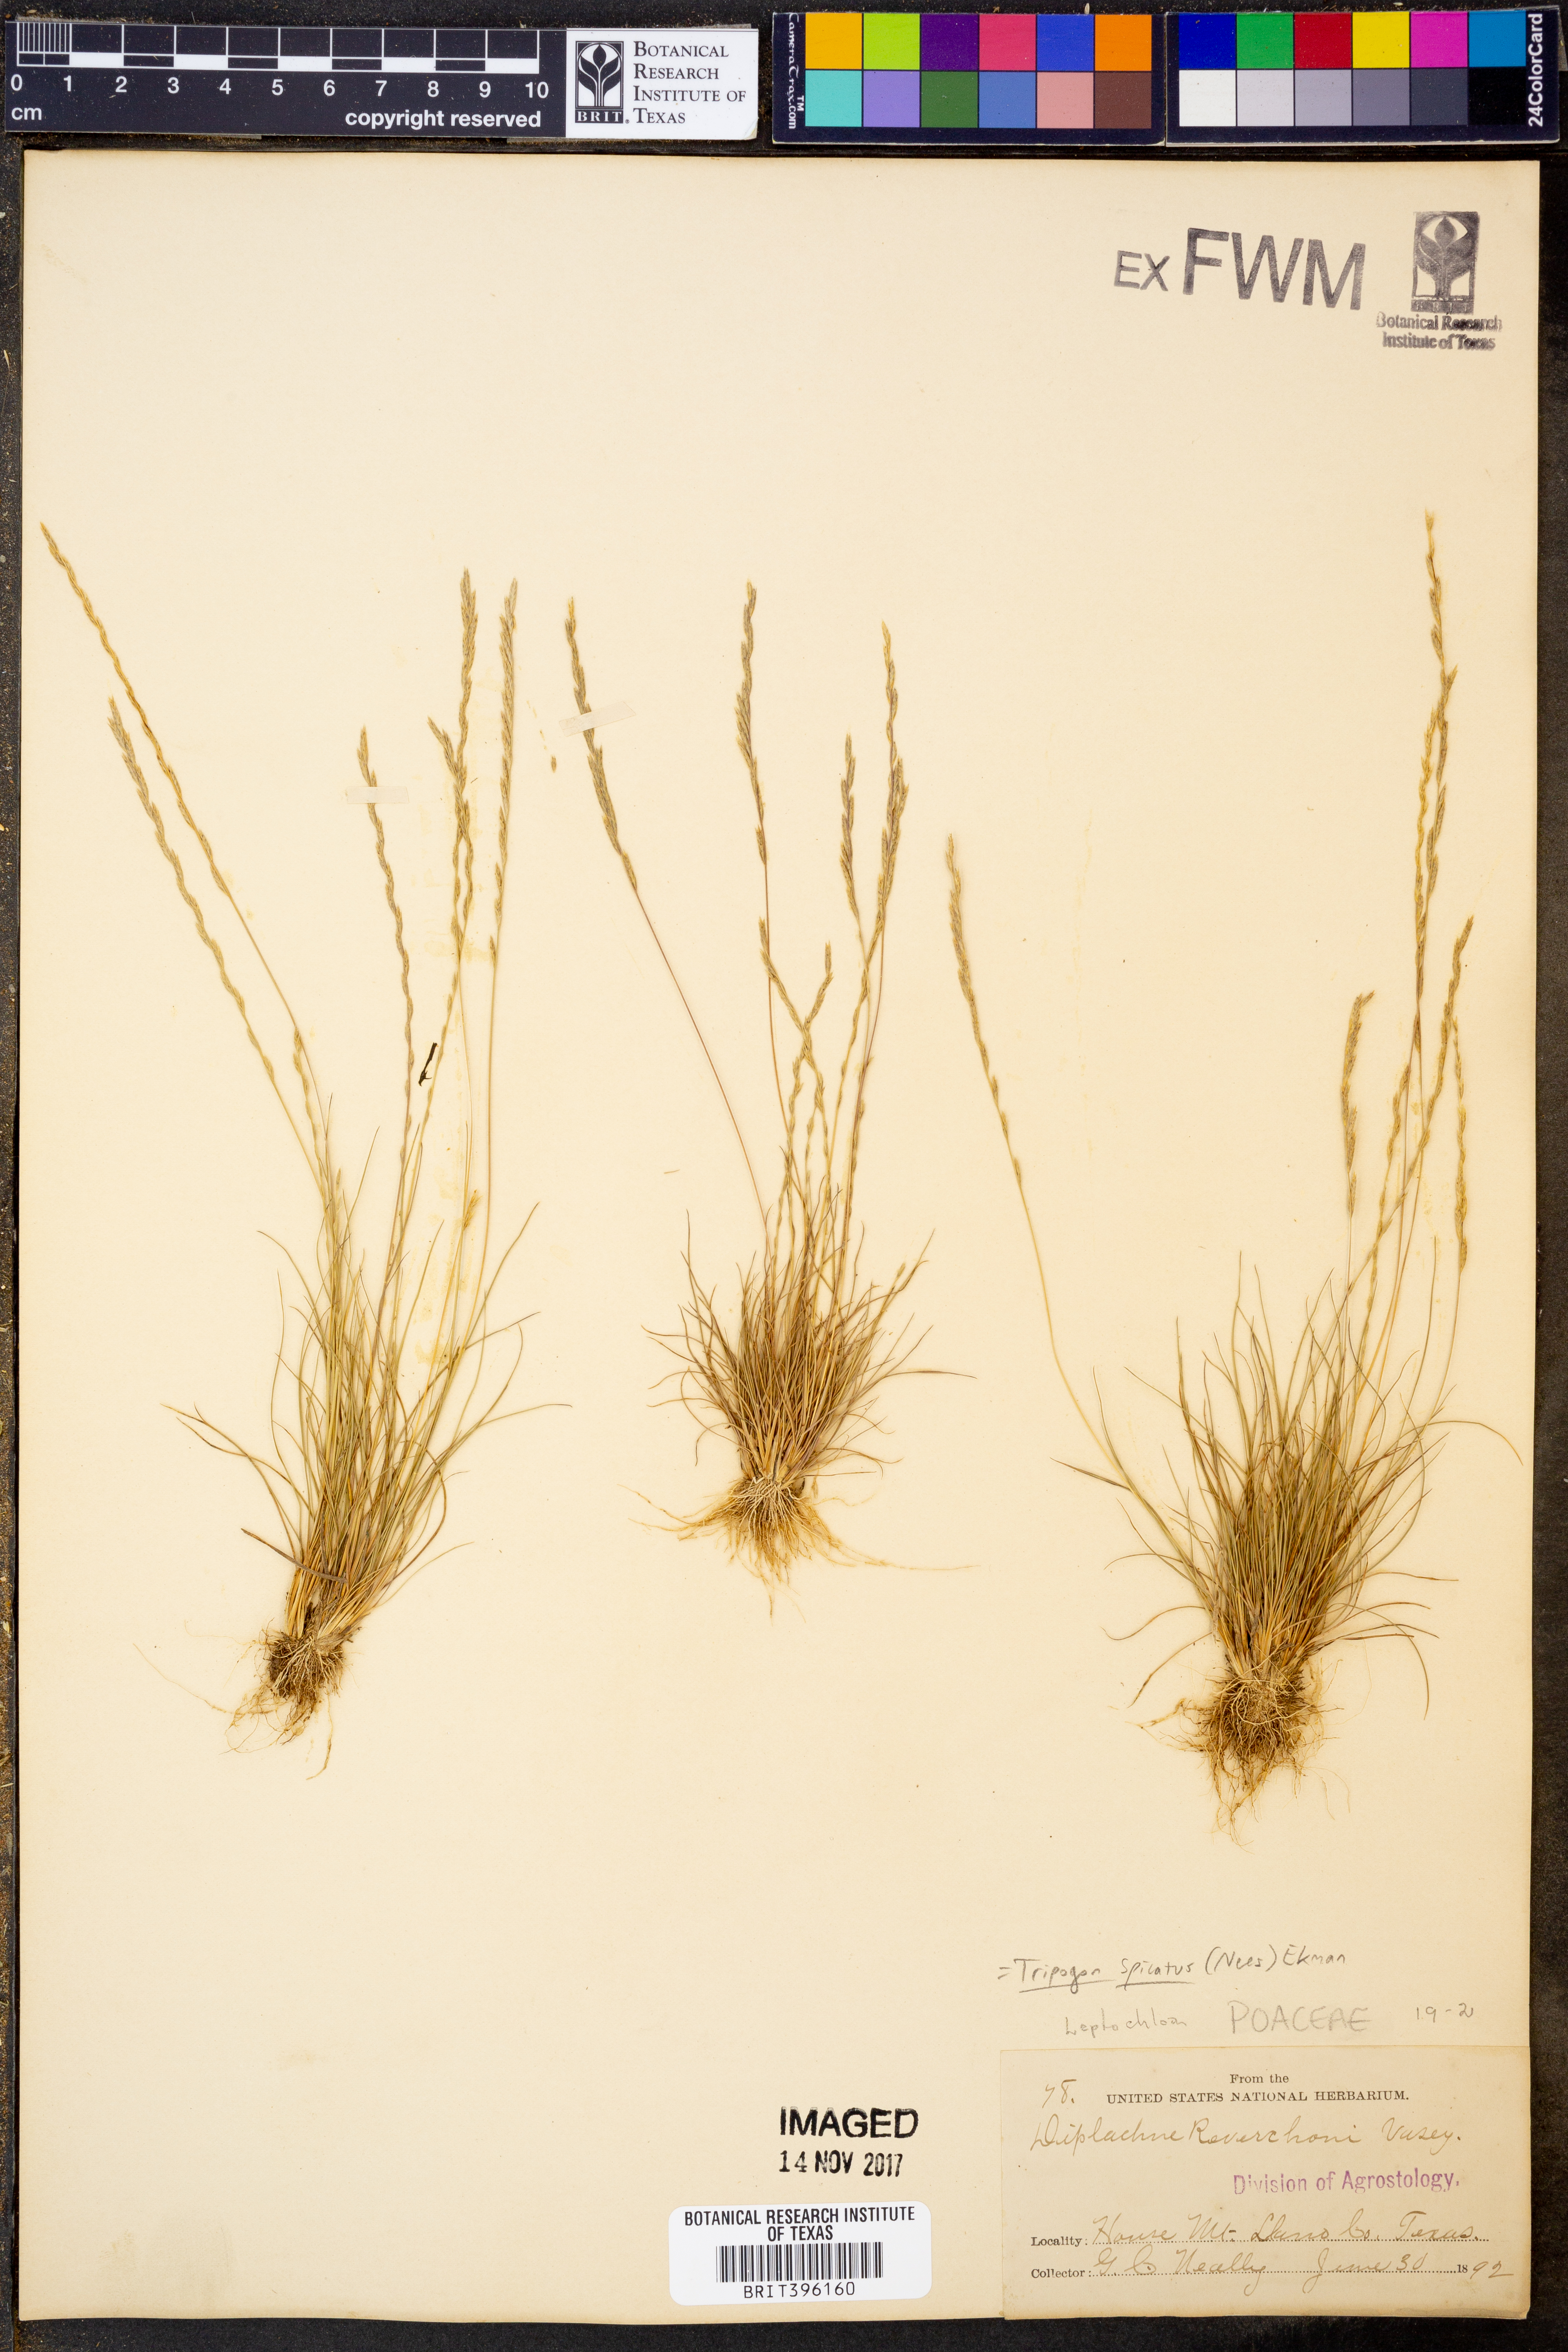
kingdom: Plantae
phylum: Tracheophyta
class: Liliopsida
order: Poales
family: Poaceae
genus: Tripogonella
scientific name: Tripogonella spicata
